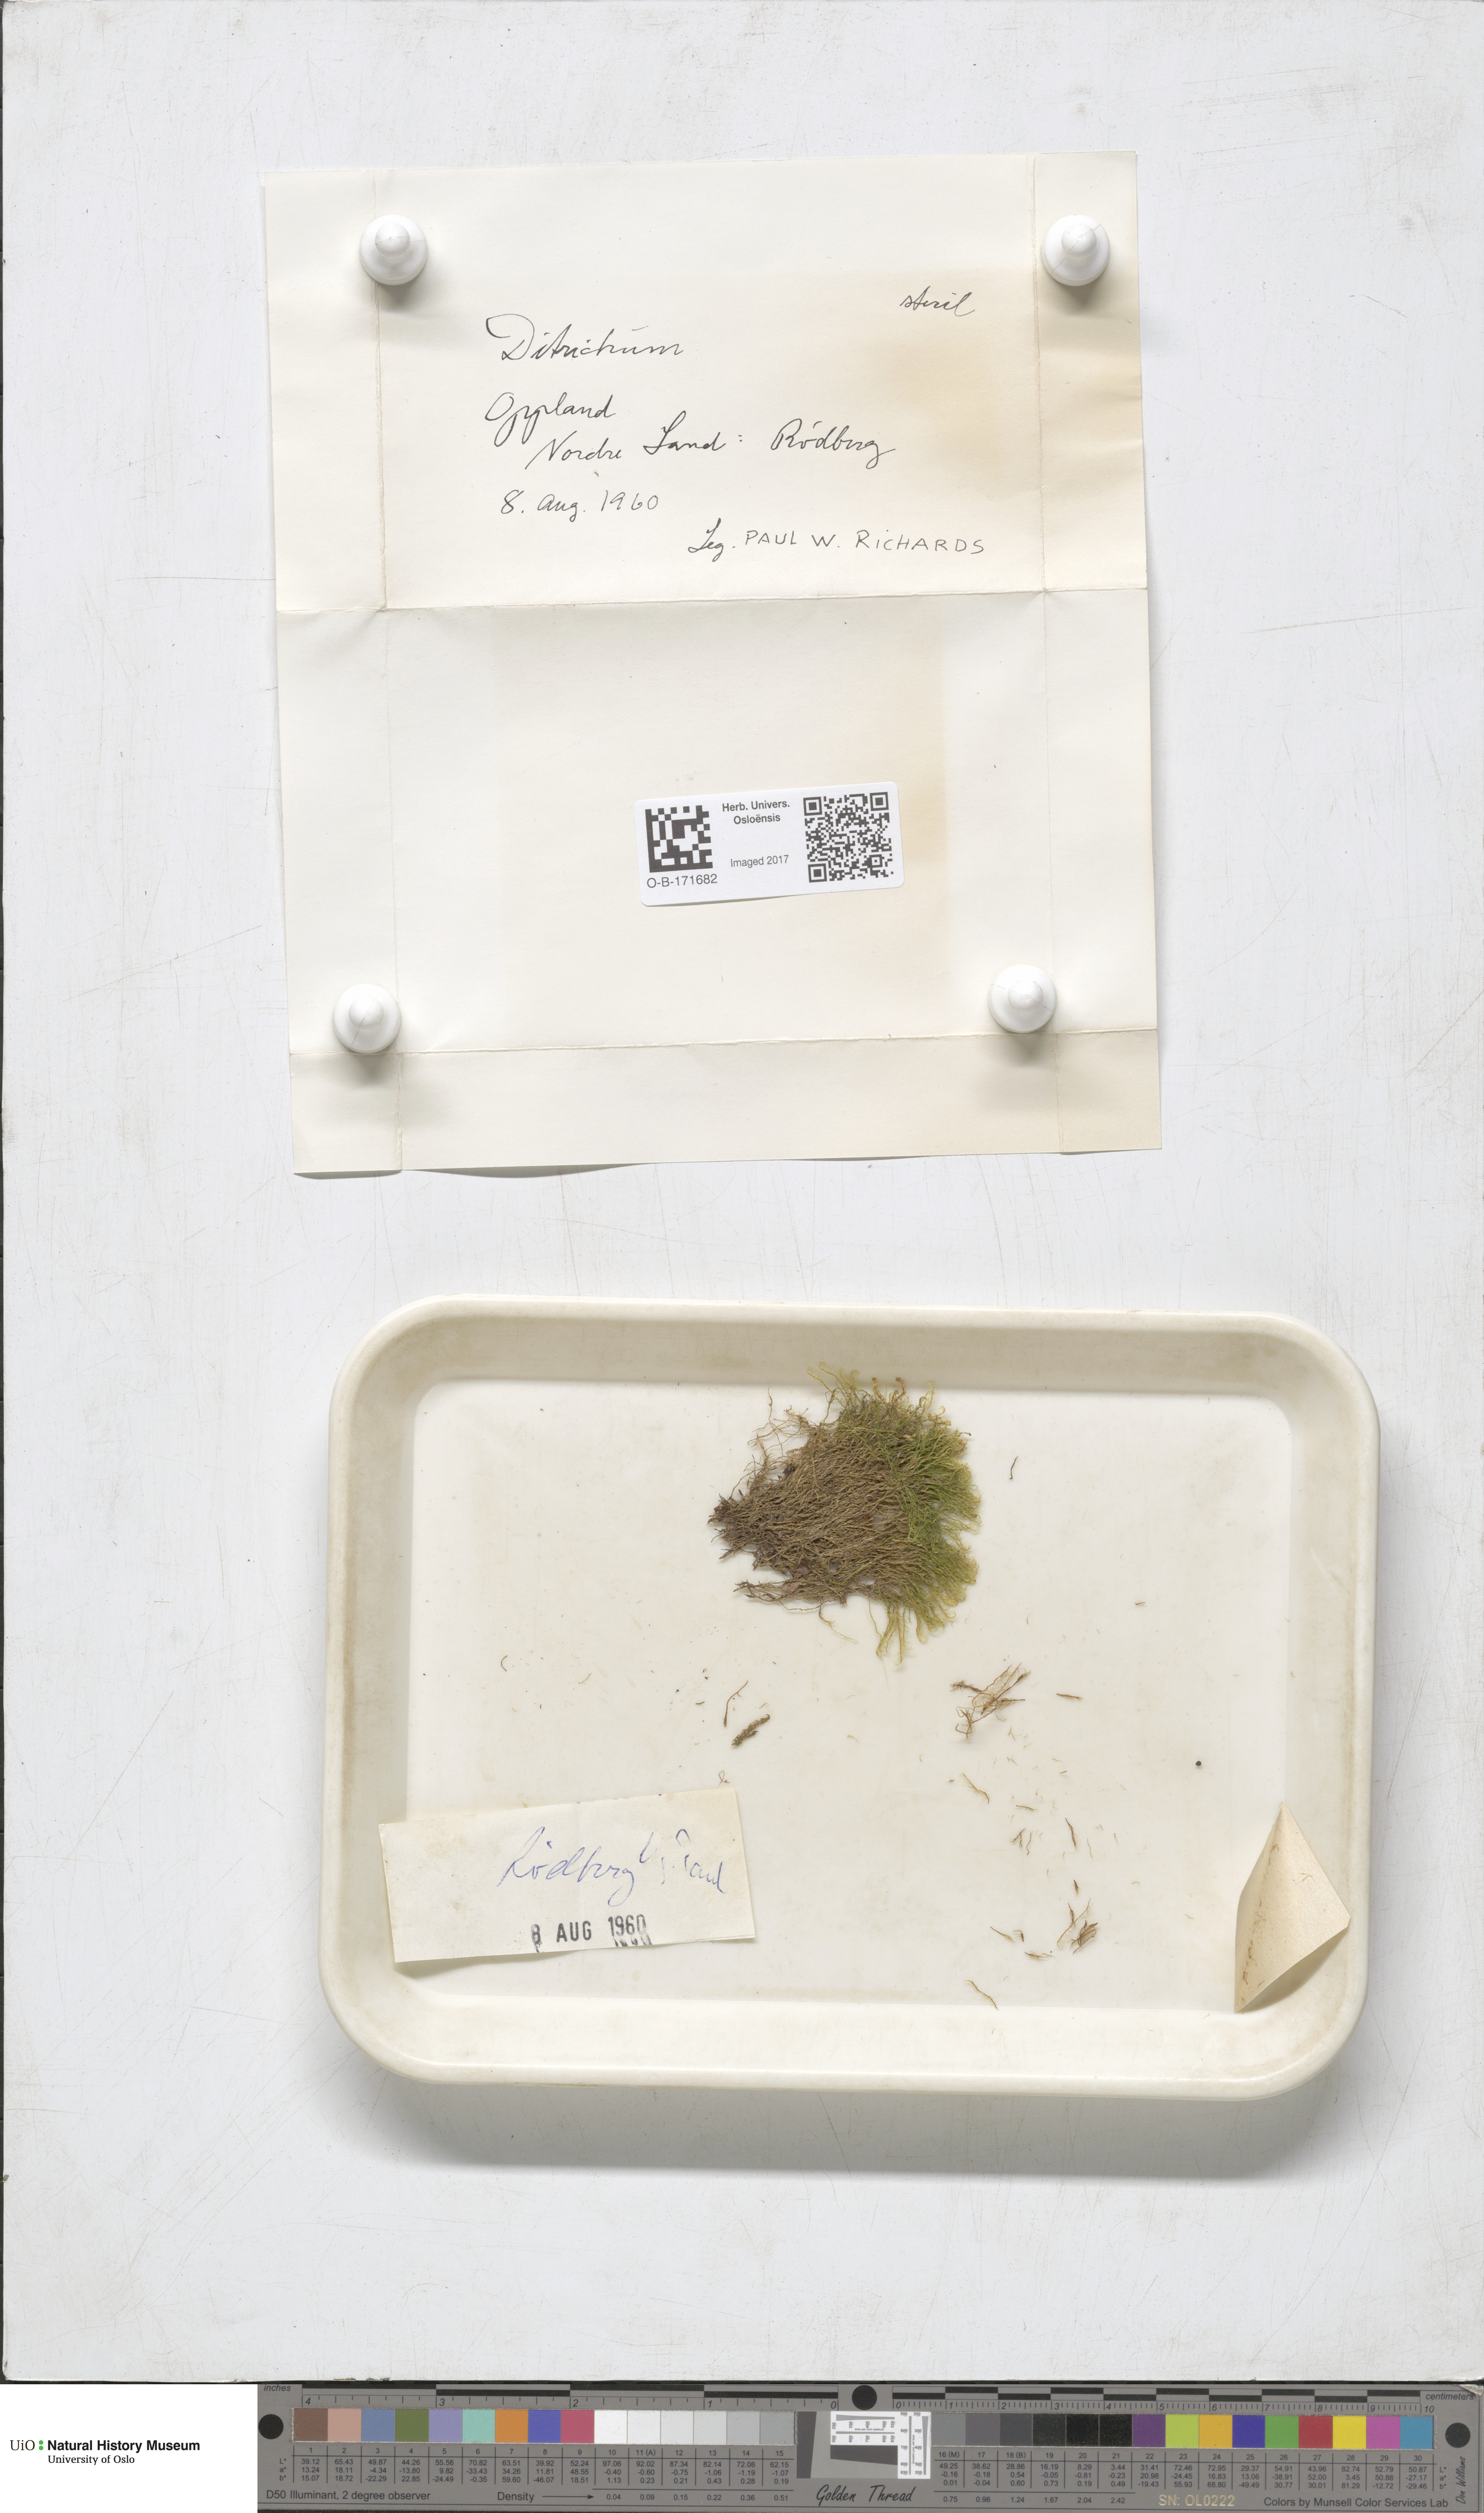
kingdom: Plantae
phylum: Bryophyta
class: Bryopsida
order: Dicranales
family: Ditrichaceae
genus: Ditrichum
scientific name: Ditrichum
